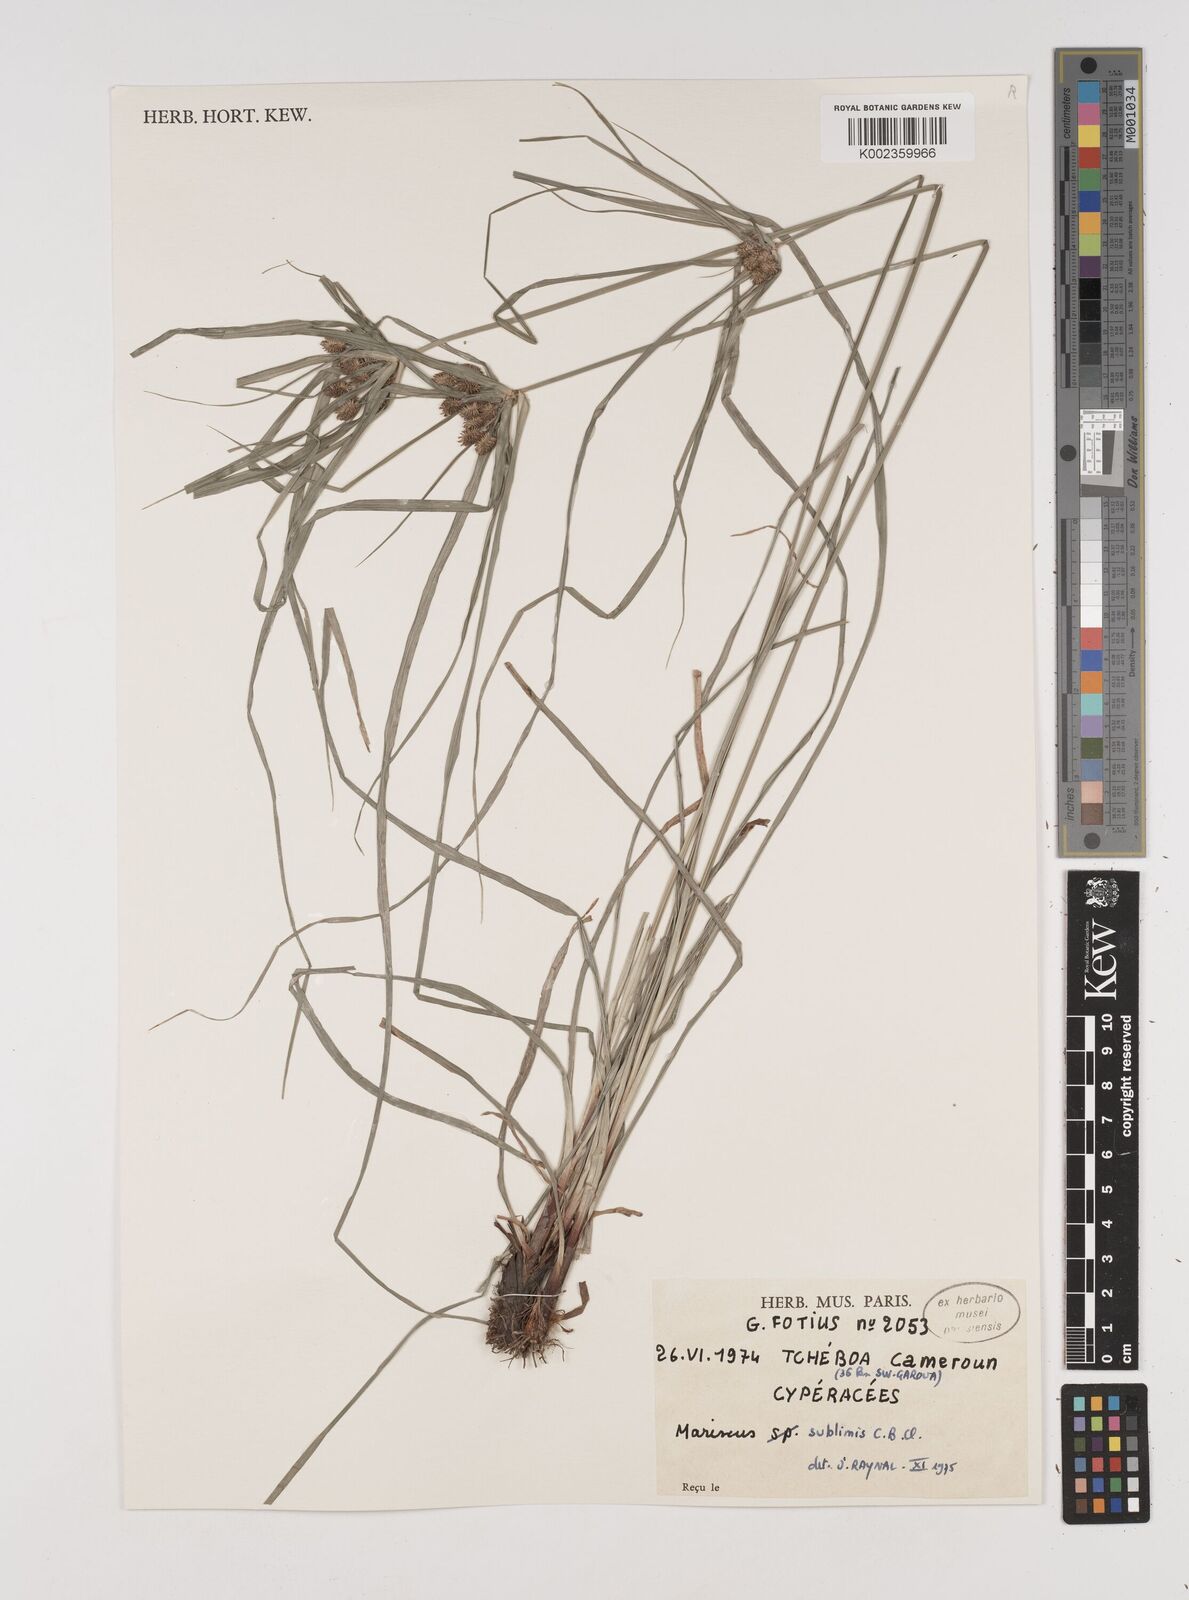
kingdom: Plantae
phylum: Tracheophyta
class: Liliopsida
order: Poales
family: Cyperaceae
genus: Cyperus
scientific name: Cyperus cyperoides
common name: Pacific island flat sedge
